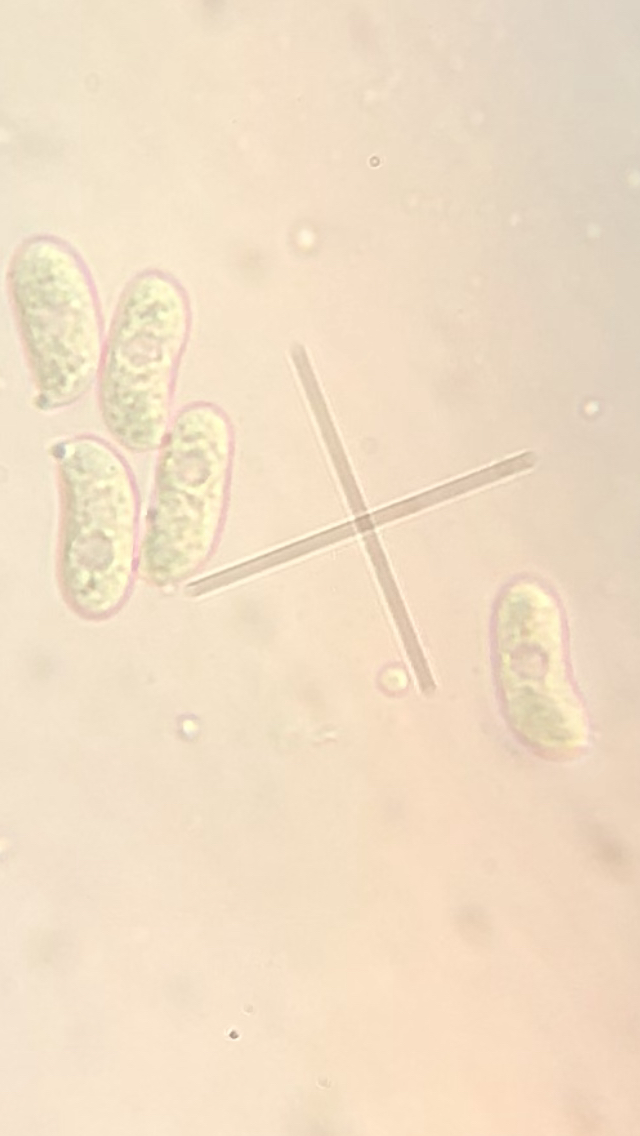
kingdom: Fungi
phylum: Basidiomycota
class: Agaricomycetes
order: Hymenochaetales
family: Schizoporaceae
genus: Xylodon
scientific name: Xylodon radula
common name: grovtandet kalkskind
